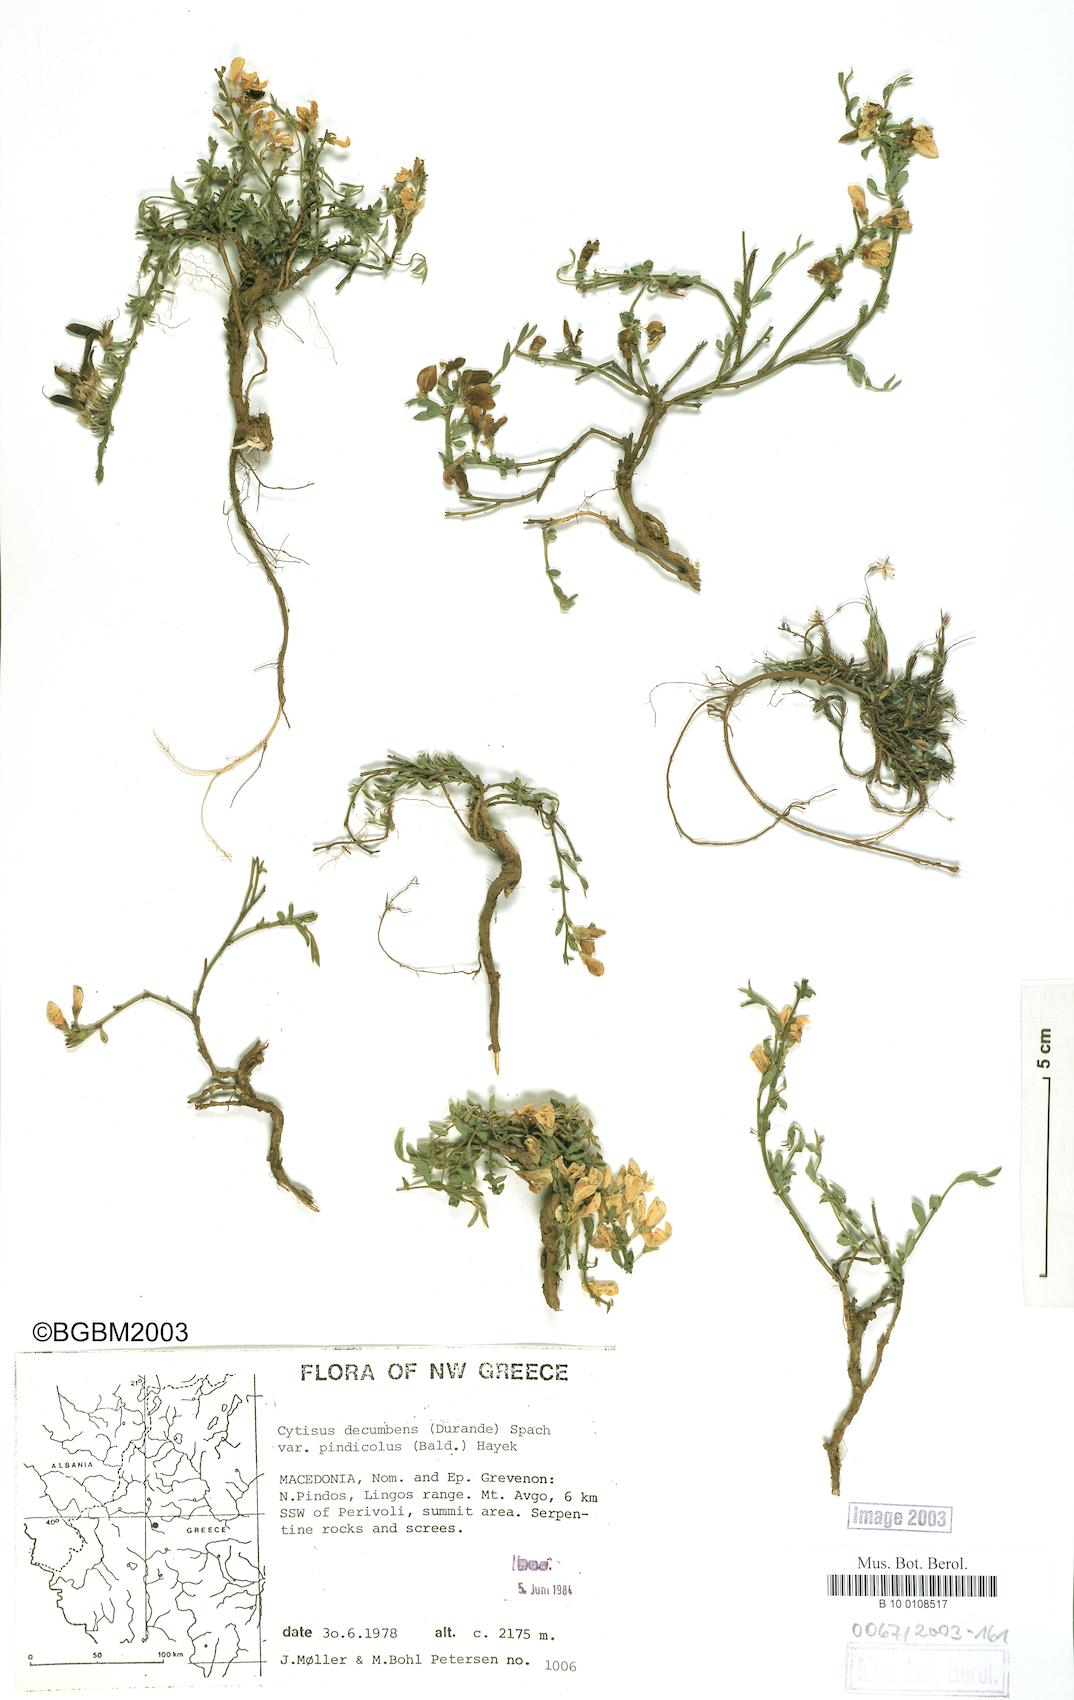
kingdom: Plantae
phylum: Tracheophyta
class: Magnoliopsida
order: Fabales
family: Fabaceae
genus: Cytisus
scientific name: Cytisus decumbens
